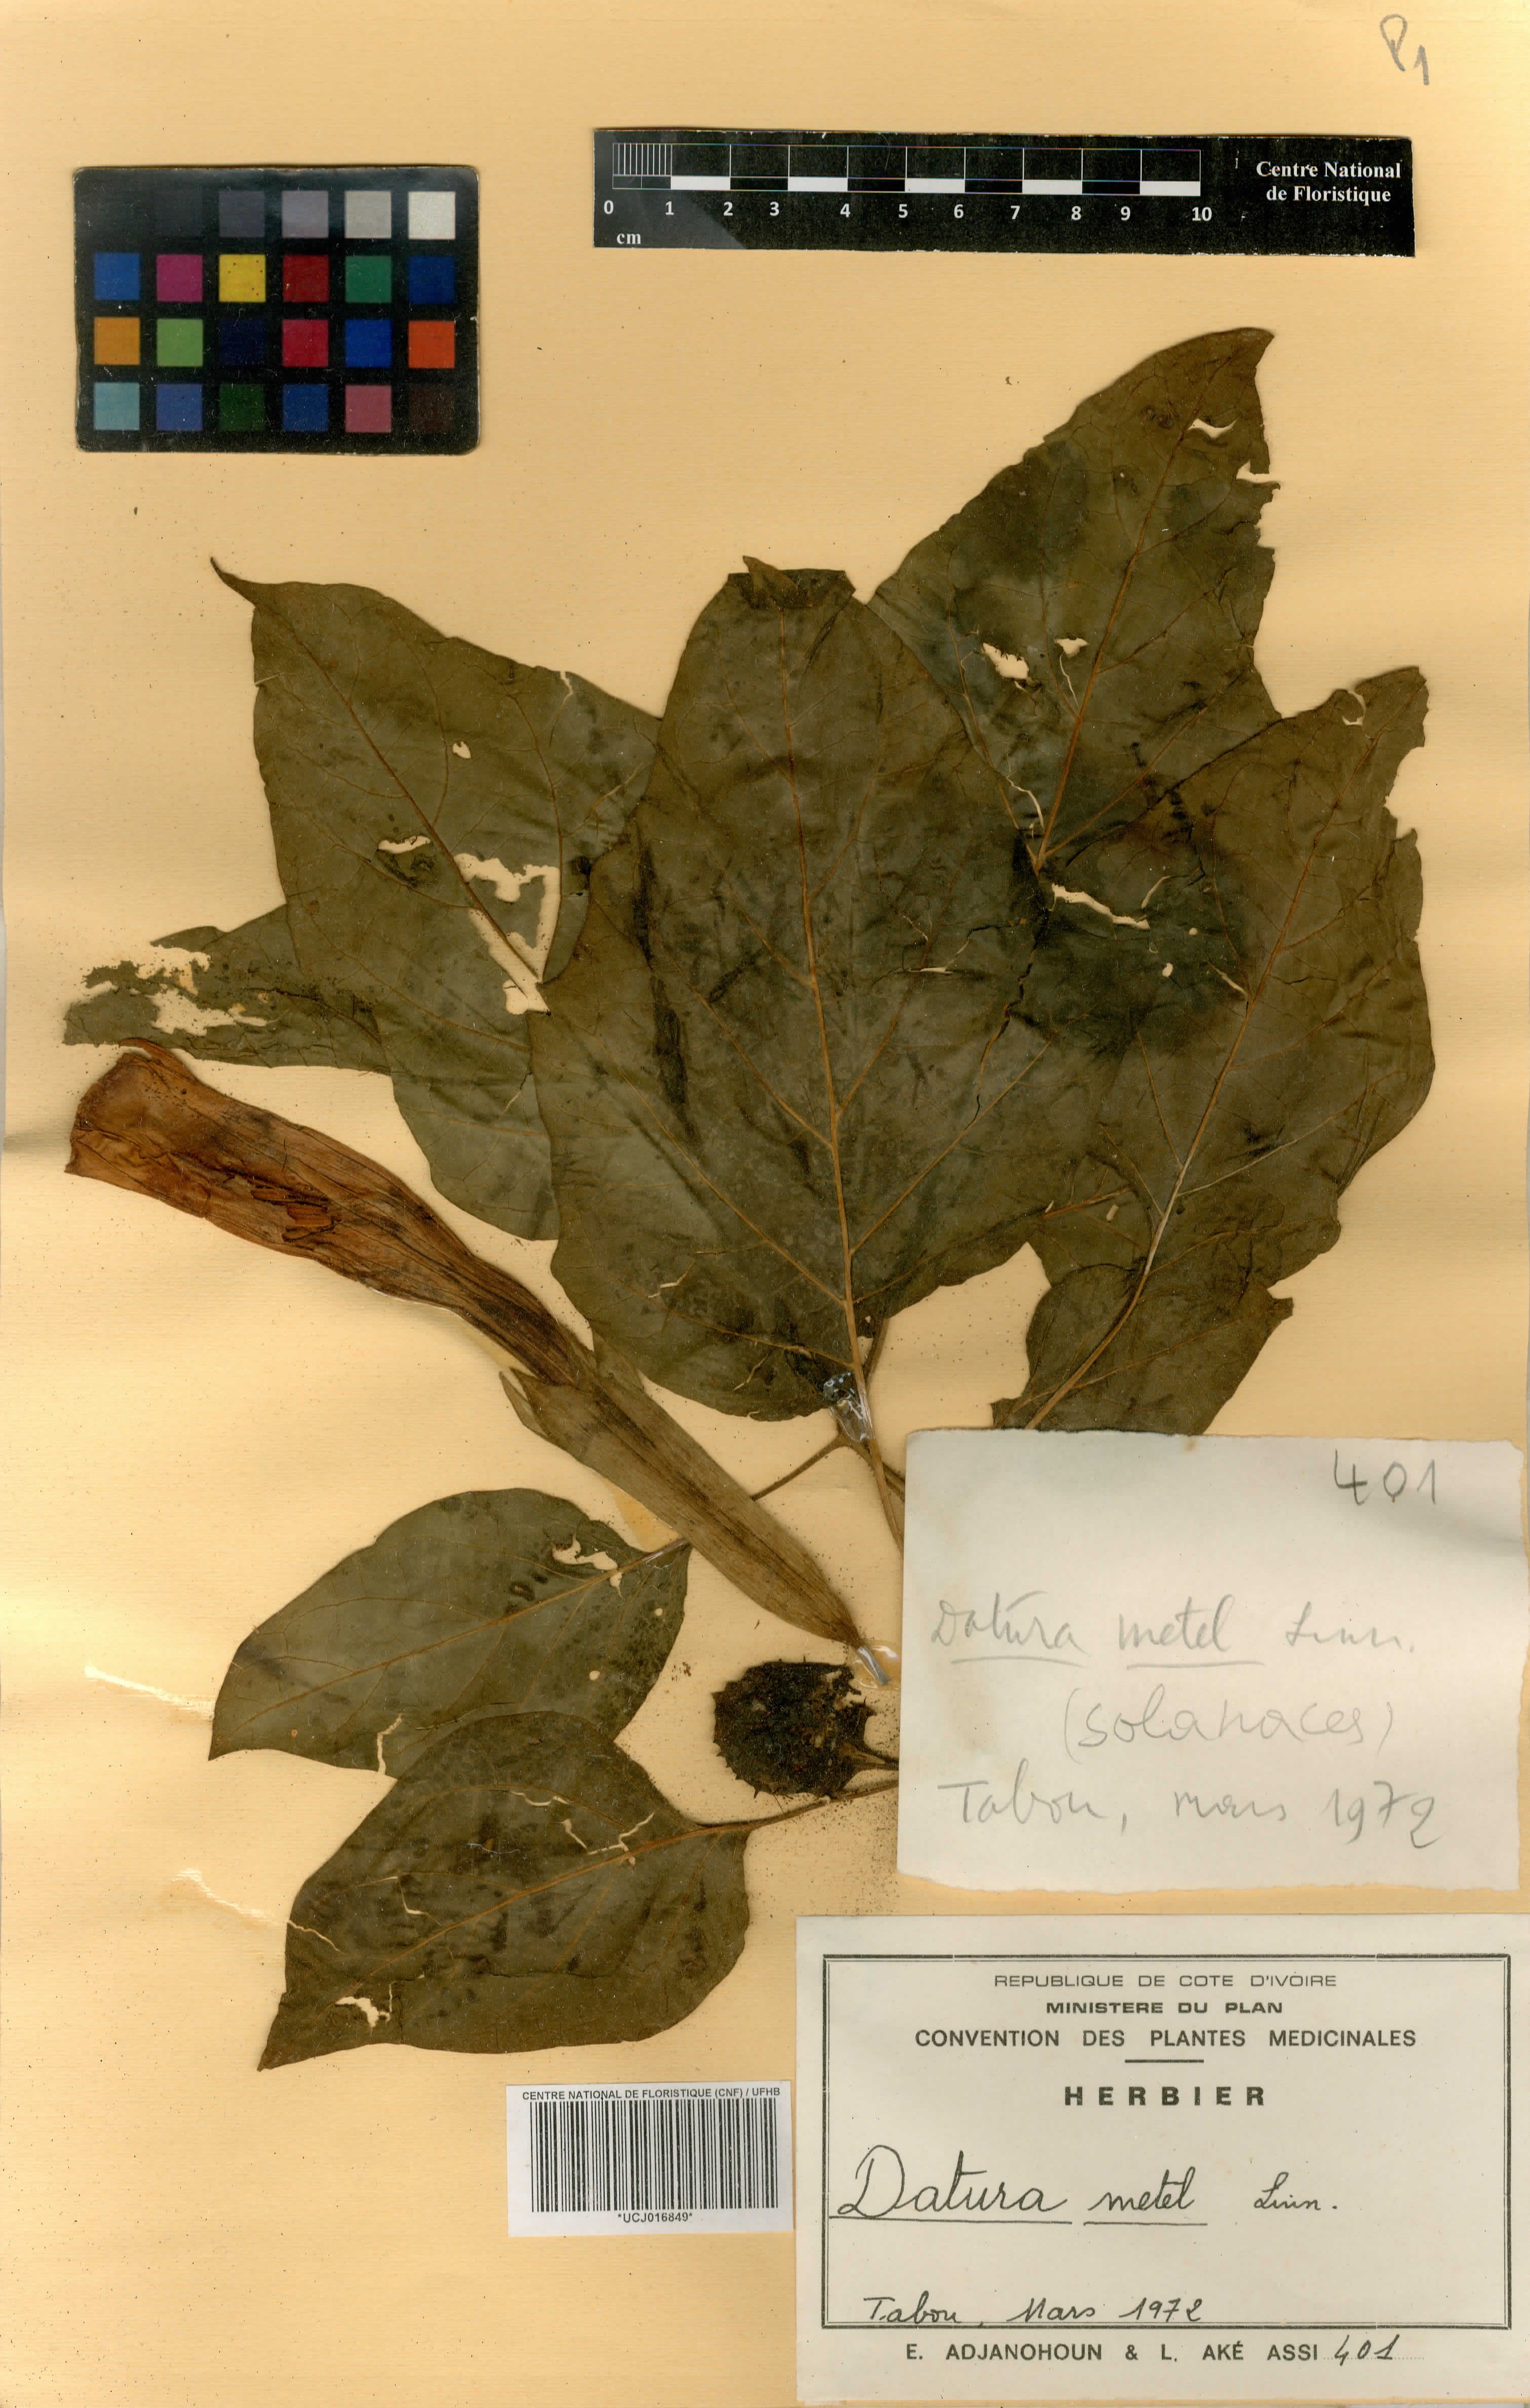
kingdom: Plantae
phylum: Tracheophyta
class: Magnoliopsida
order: Solanales
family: Solanaceae
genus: Datura
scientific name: Datura metel
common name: Jimsonweed
